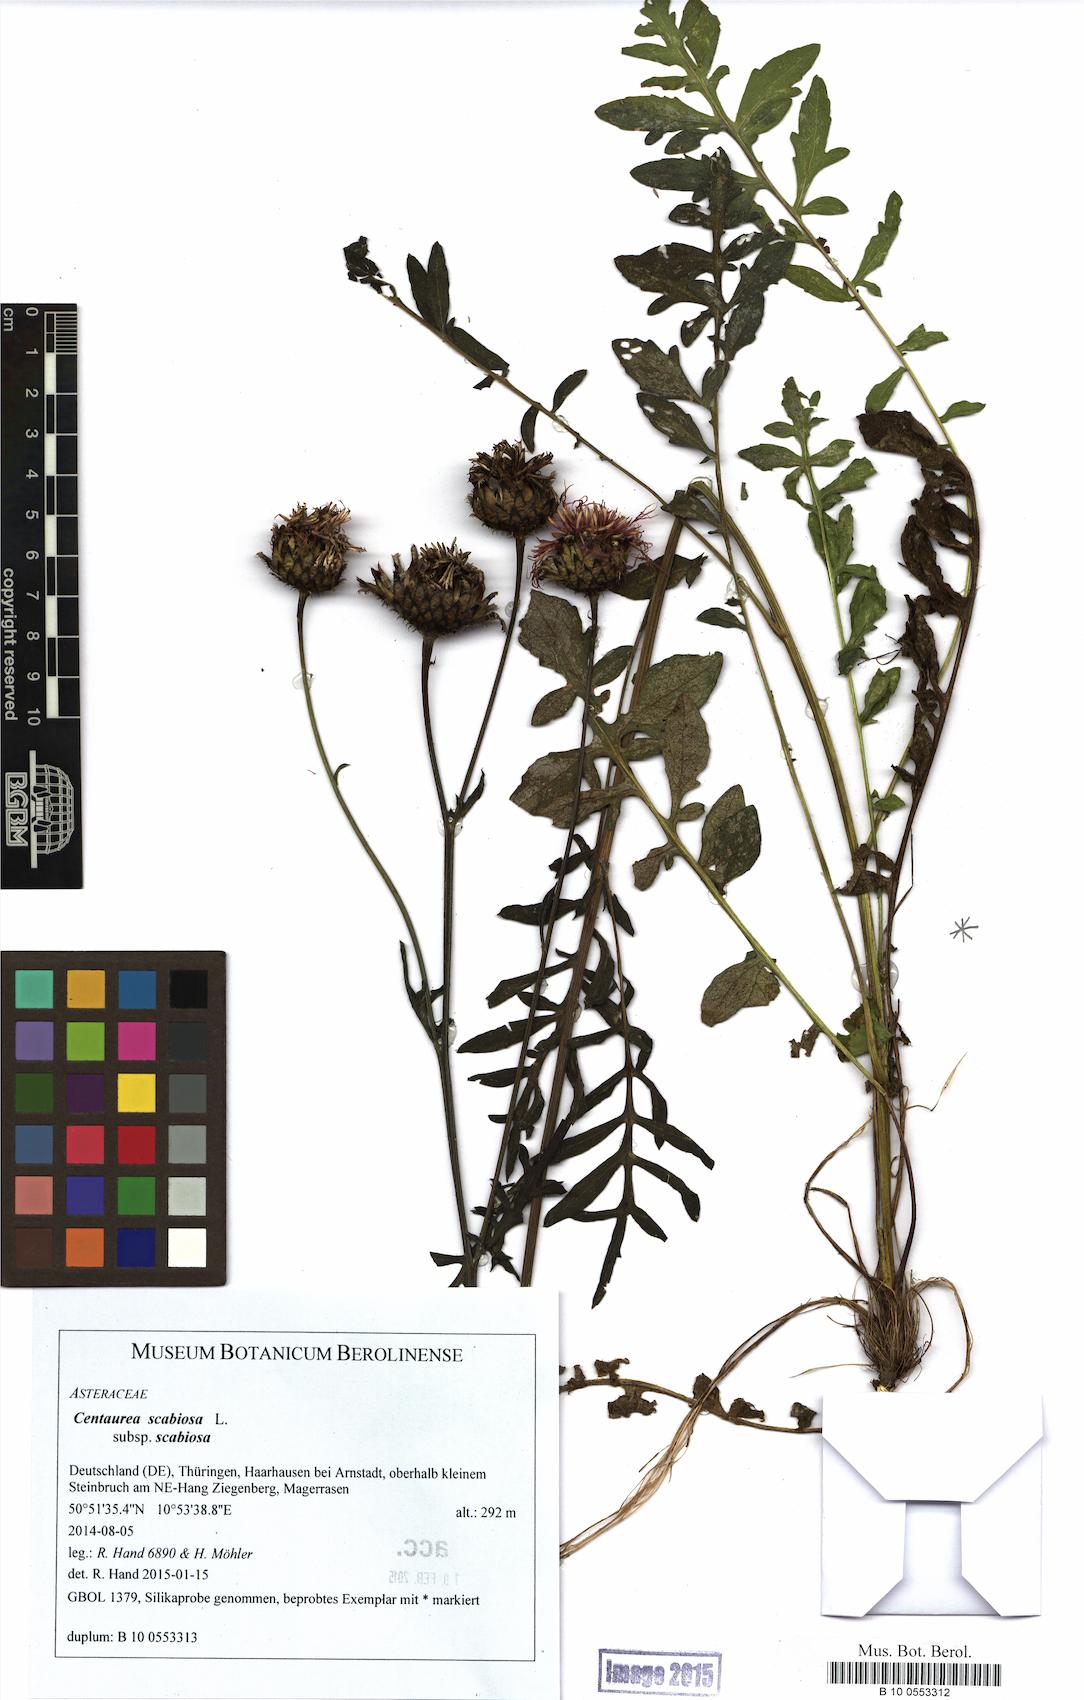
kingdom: Plantae
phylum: Tracheophyta
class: Magnoliopsida
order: Asterales
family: Asteraceae
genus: Centaurea
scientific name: Centaurea scabiosa
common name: Greater knapweed
